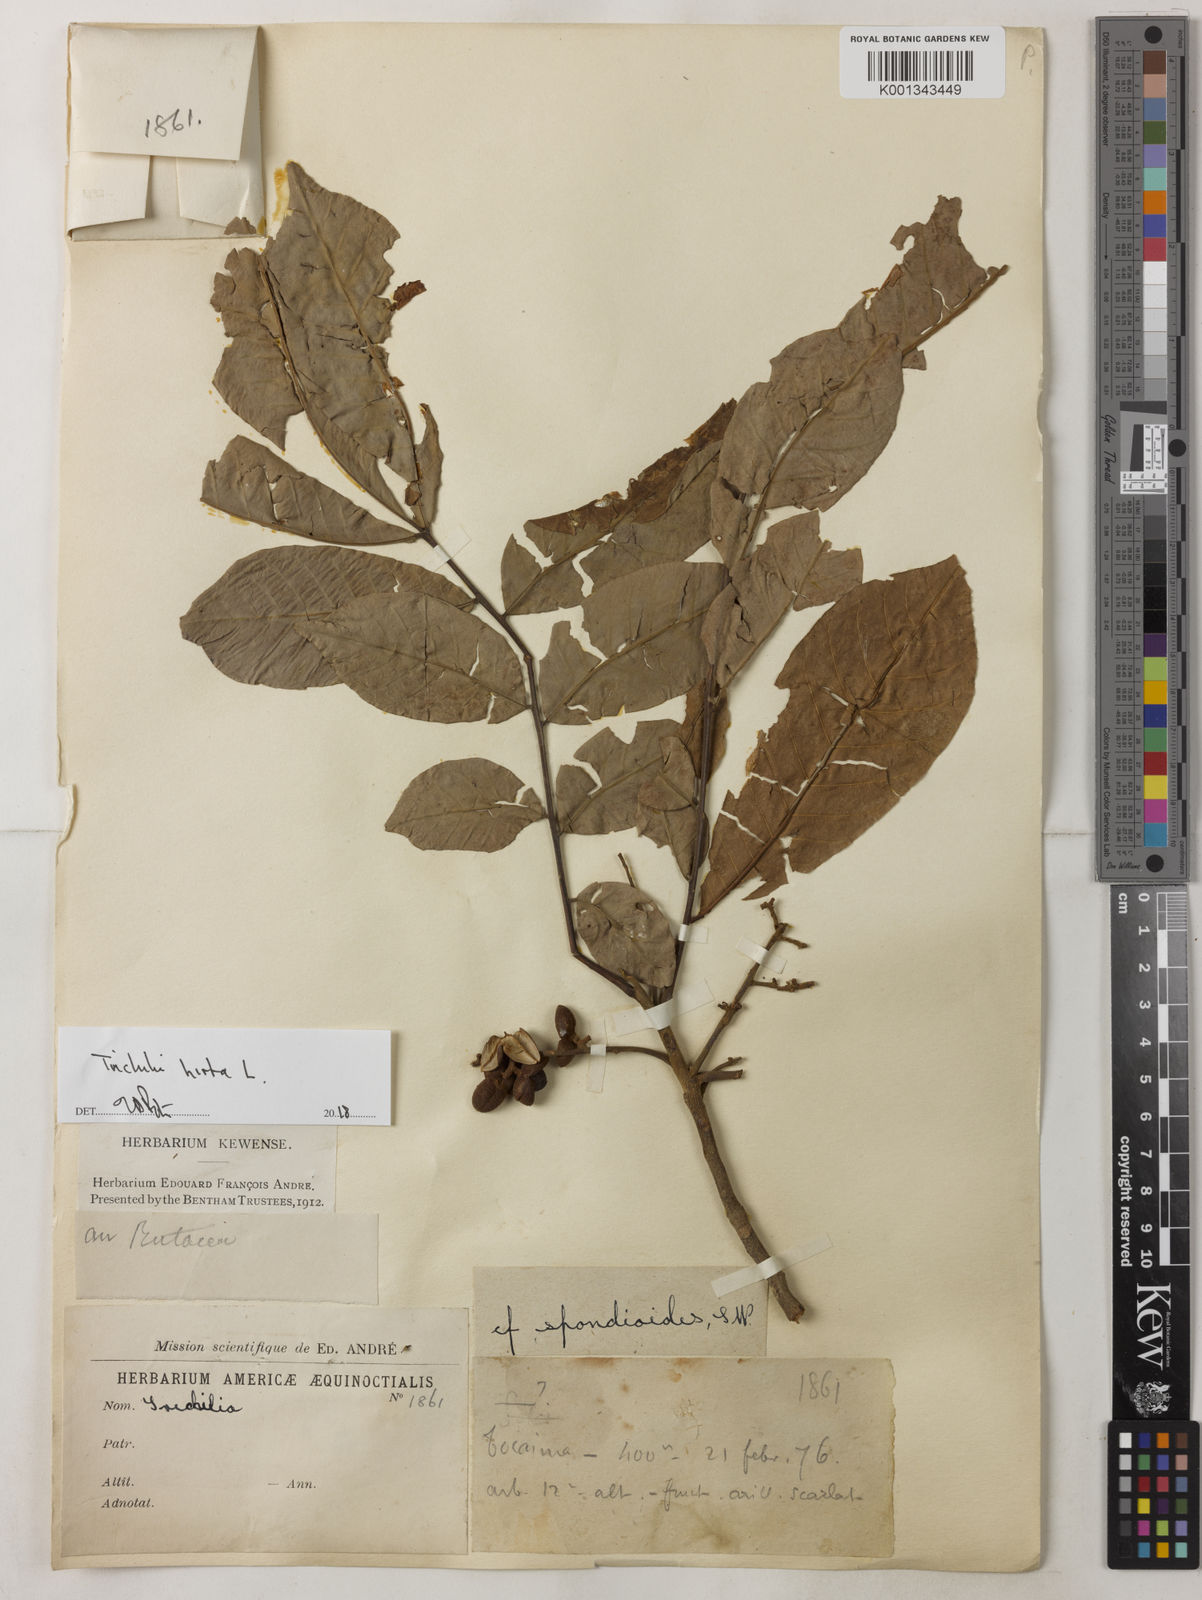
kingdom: Plantae
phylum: Tracheophyta
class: Magnoliopsida
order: Sapindales
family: Meliaceae
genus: Trichilia
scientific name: Trichilia hirta
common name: Red-cedar
